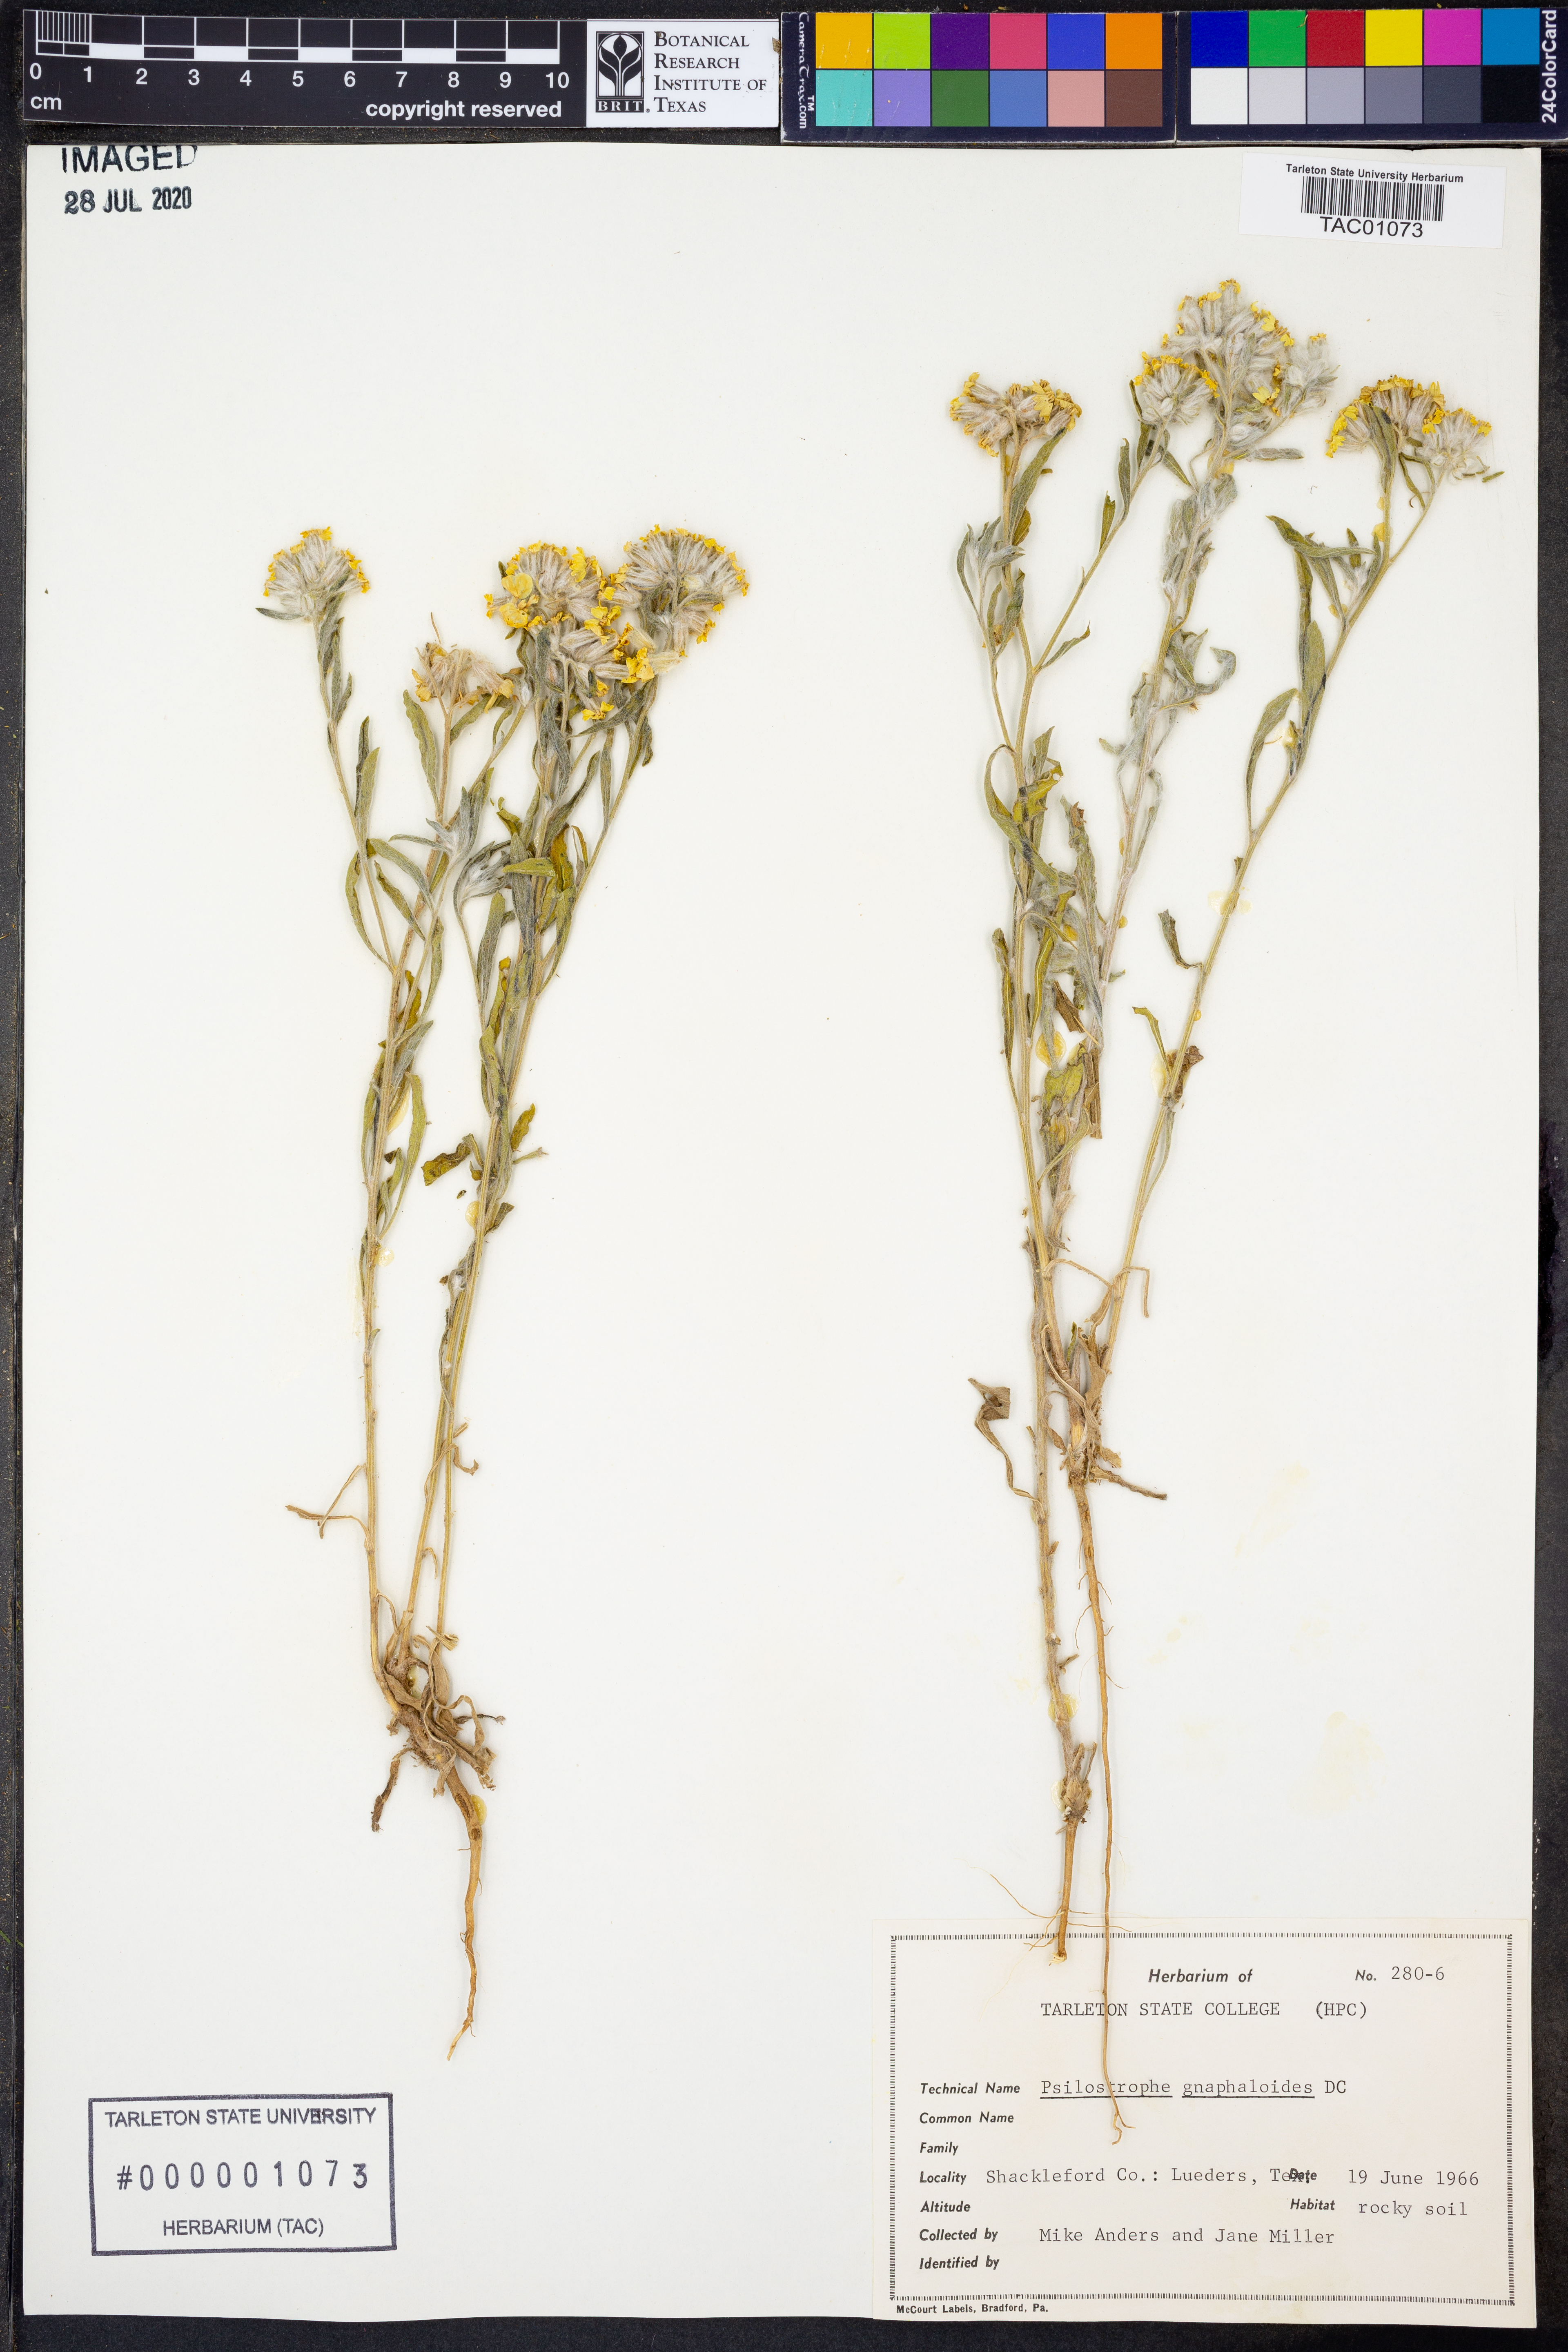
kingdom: Plantae
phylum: Tracheophyta
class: Magnoliopsida
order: Asterales
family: Asteraceae
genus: Psilostrophe
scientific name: Psilostrophe gnaphalioides
